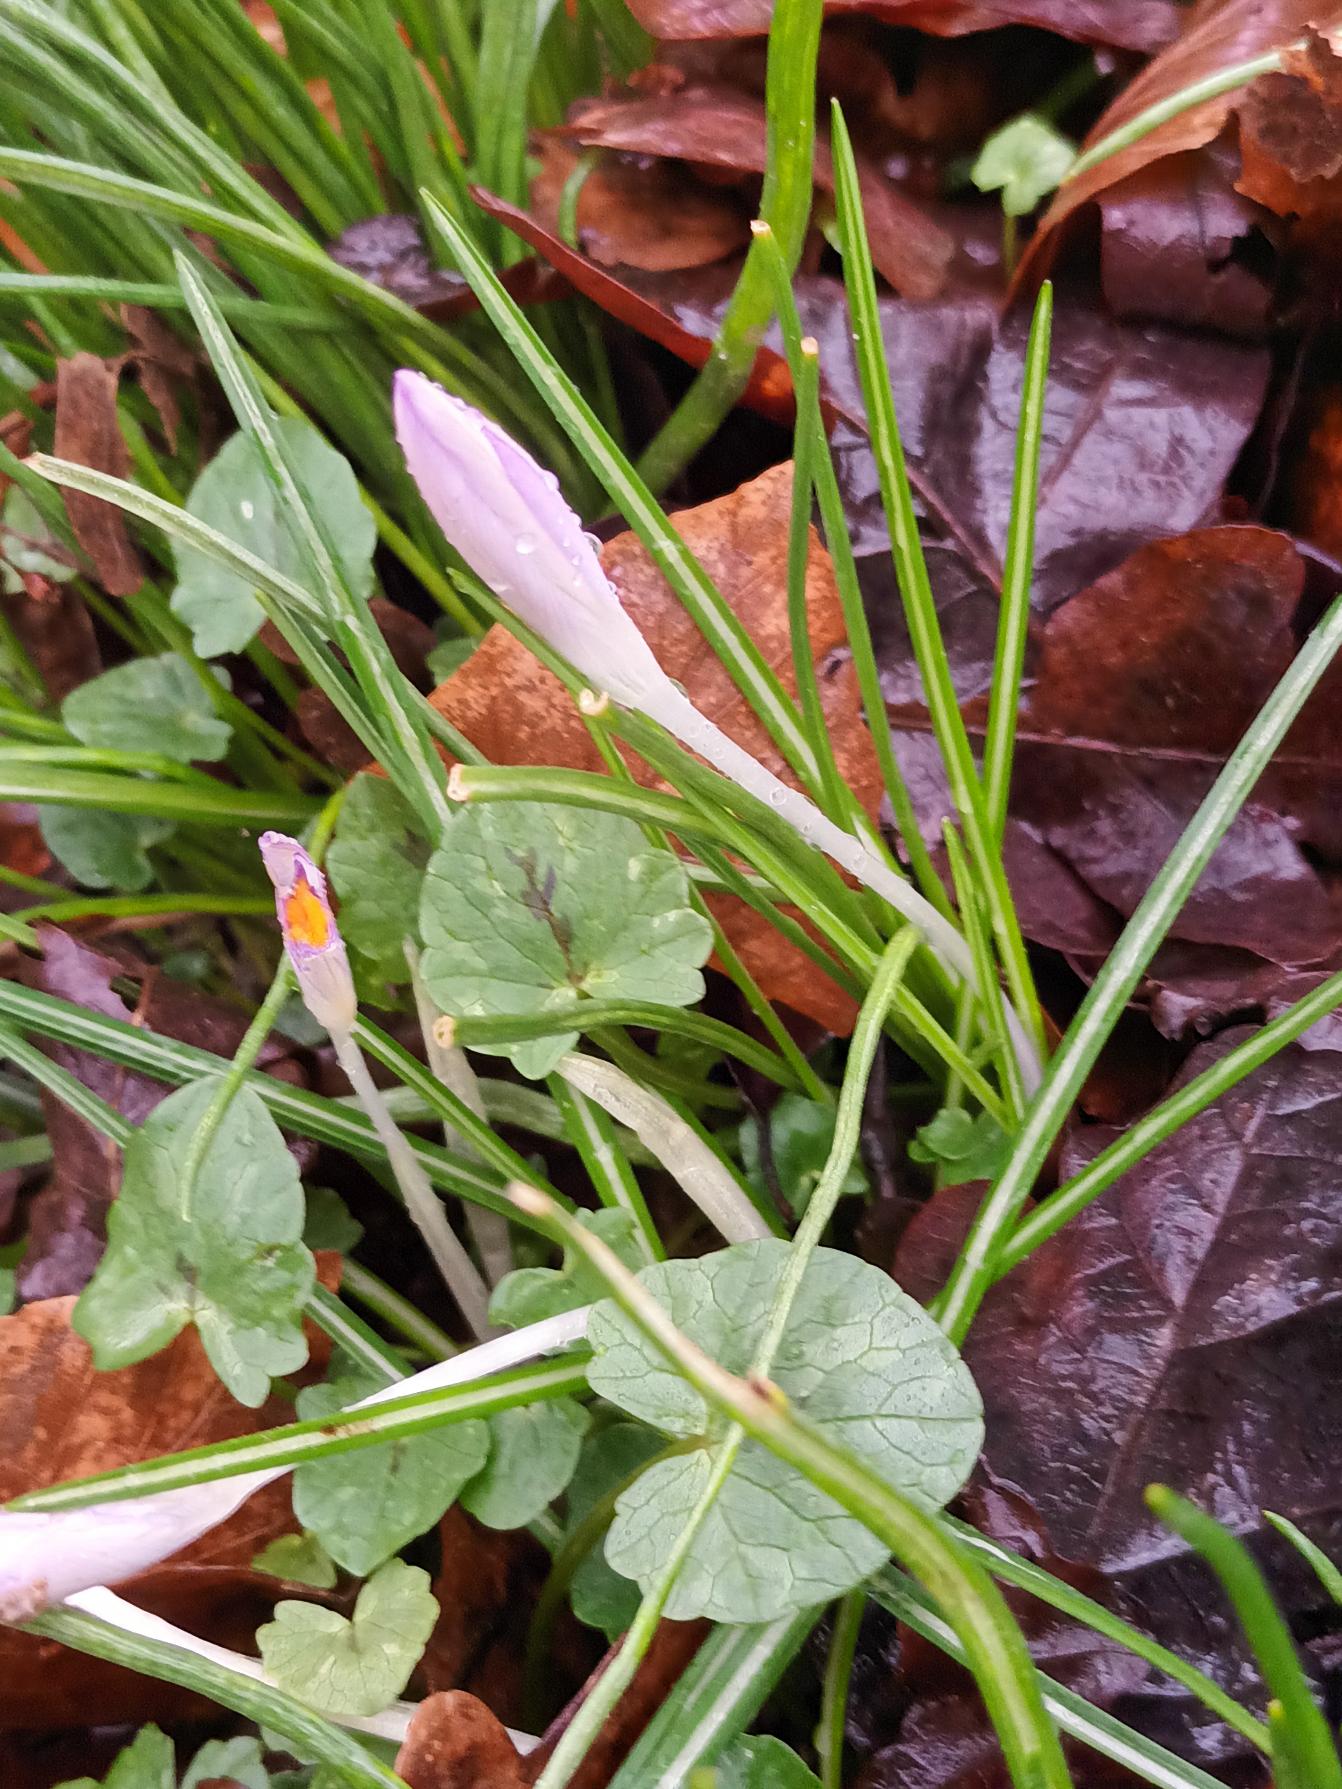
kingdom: Plantae
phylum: Tracheophyta
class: Liliopsida
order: Asparagales
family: Iridaceae
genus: Crocus
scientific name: Crocus tommasinianus
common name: Sne-krokus
